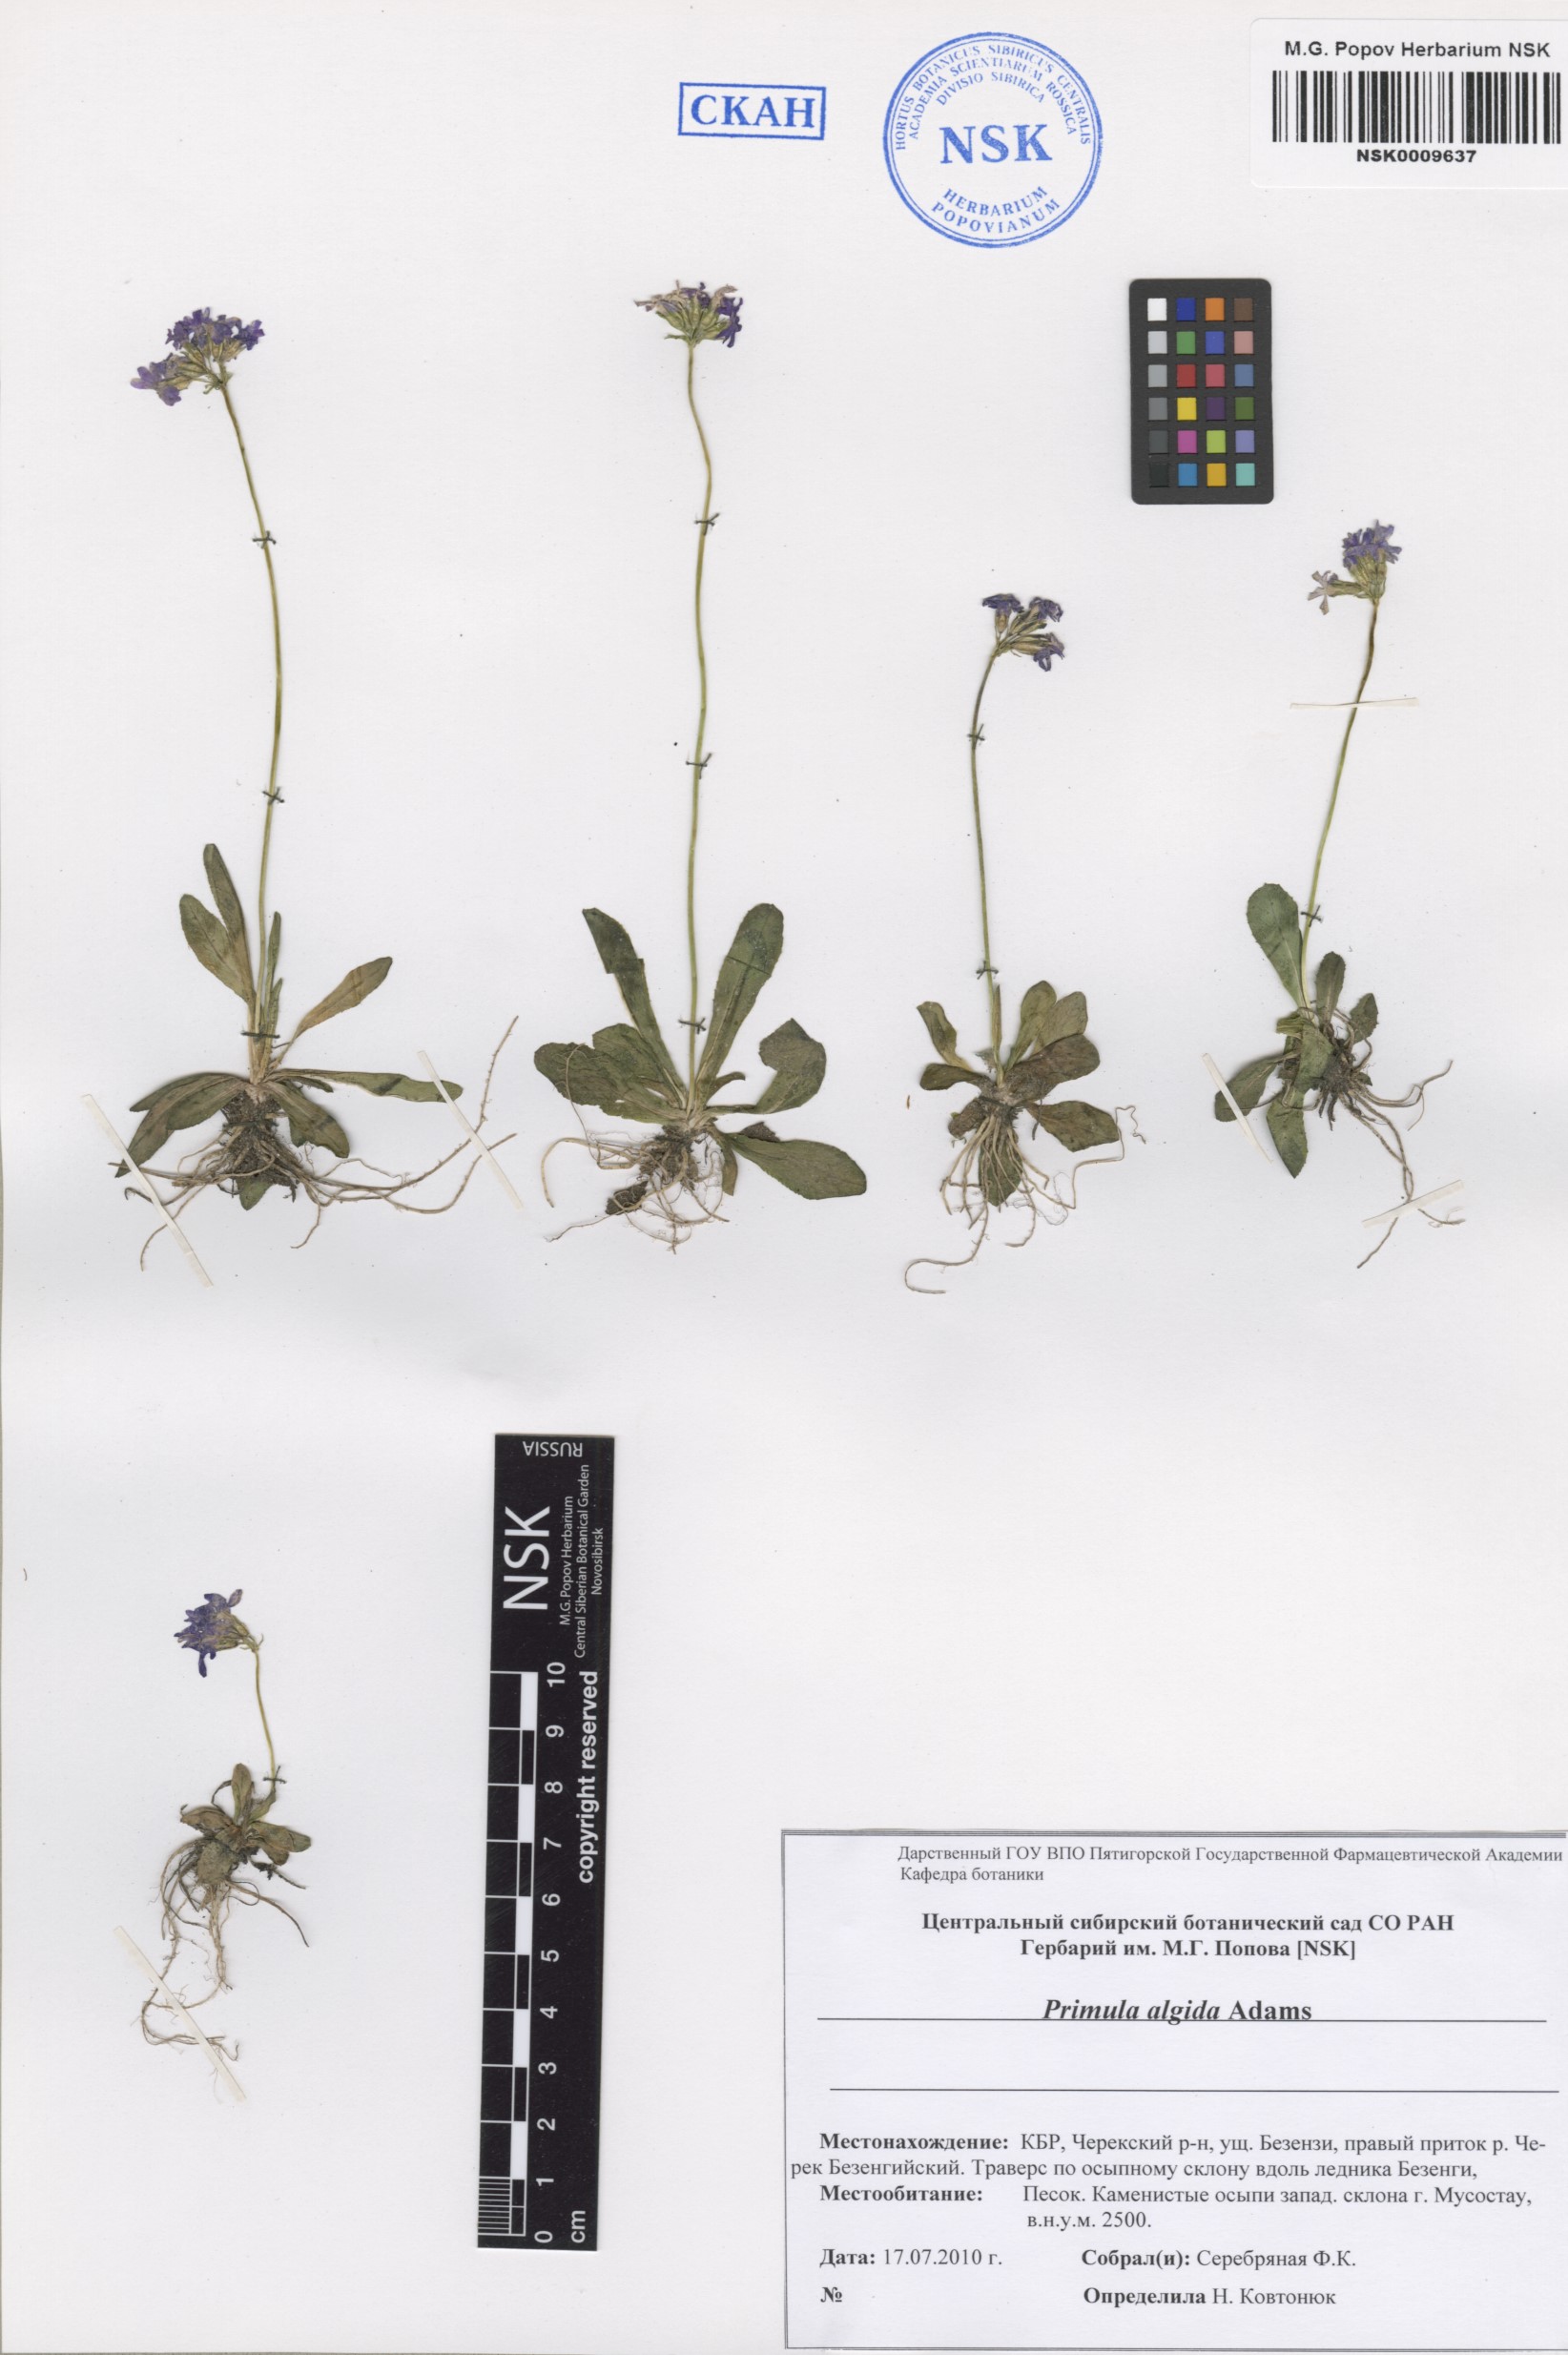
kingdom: Plantae
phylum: Tracheophyta
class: Magnoliopsida
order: Ericales
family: Primulaceae
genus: Primula
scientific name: Primula algida
